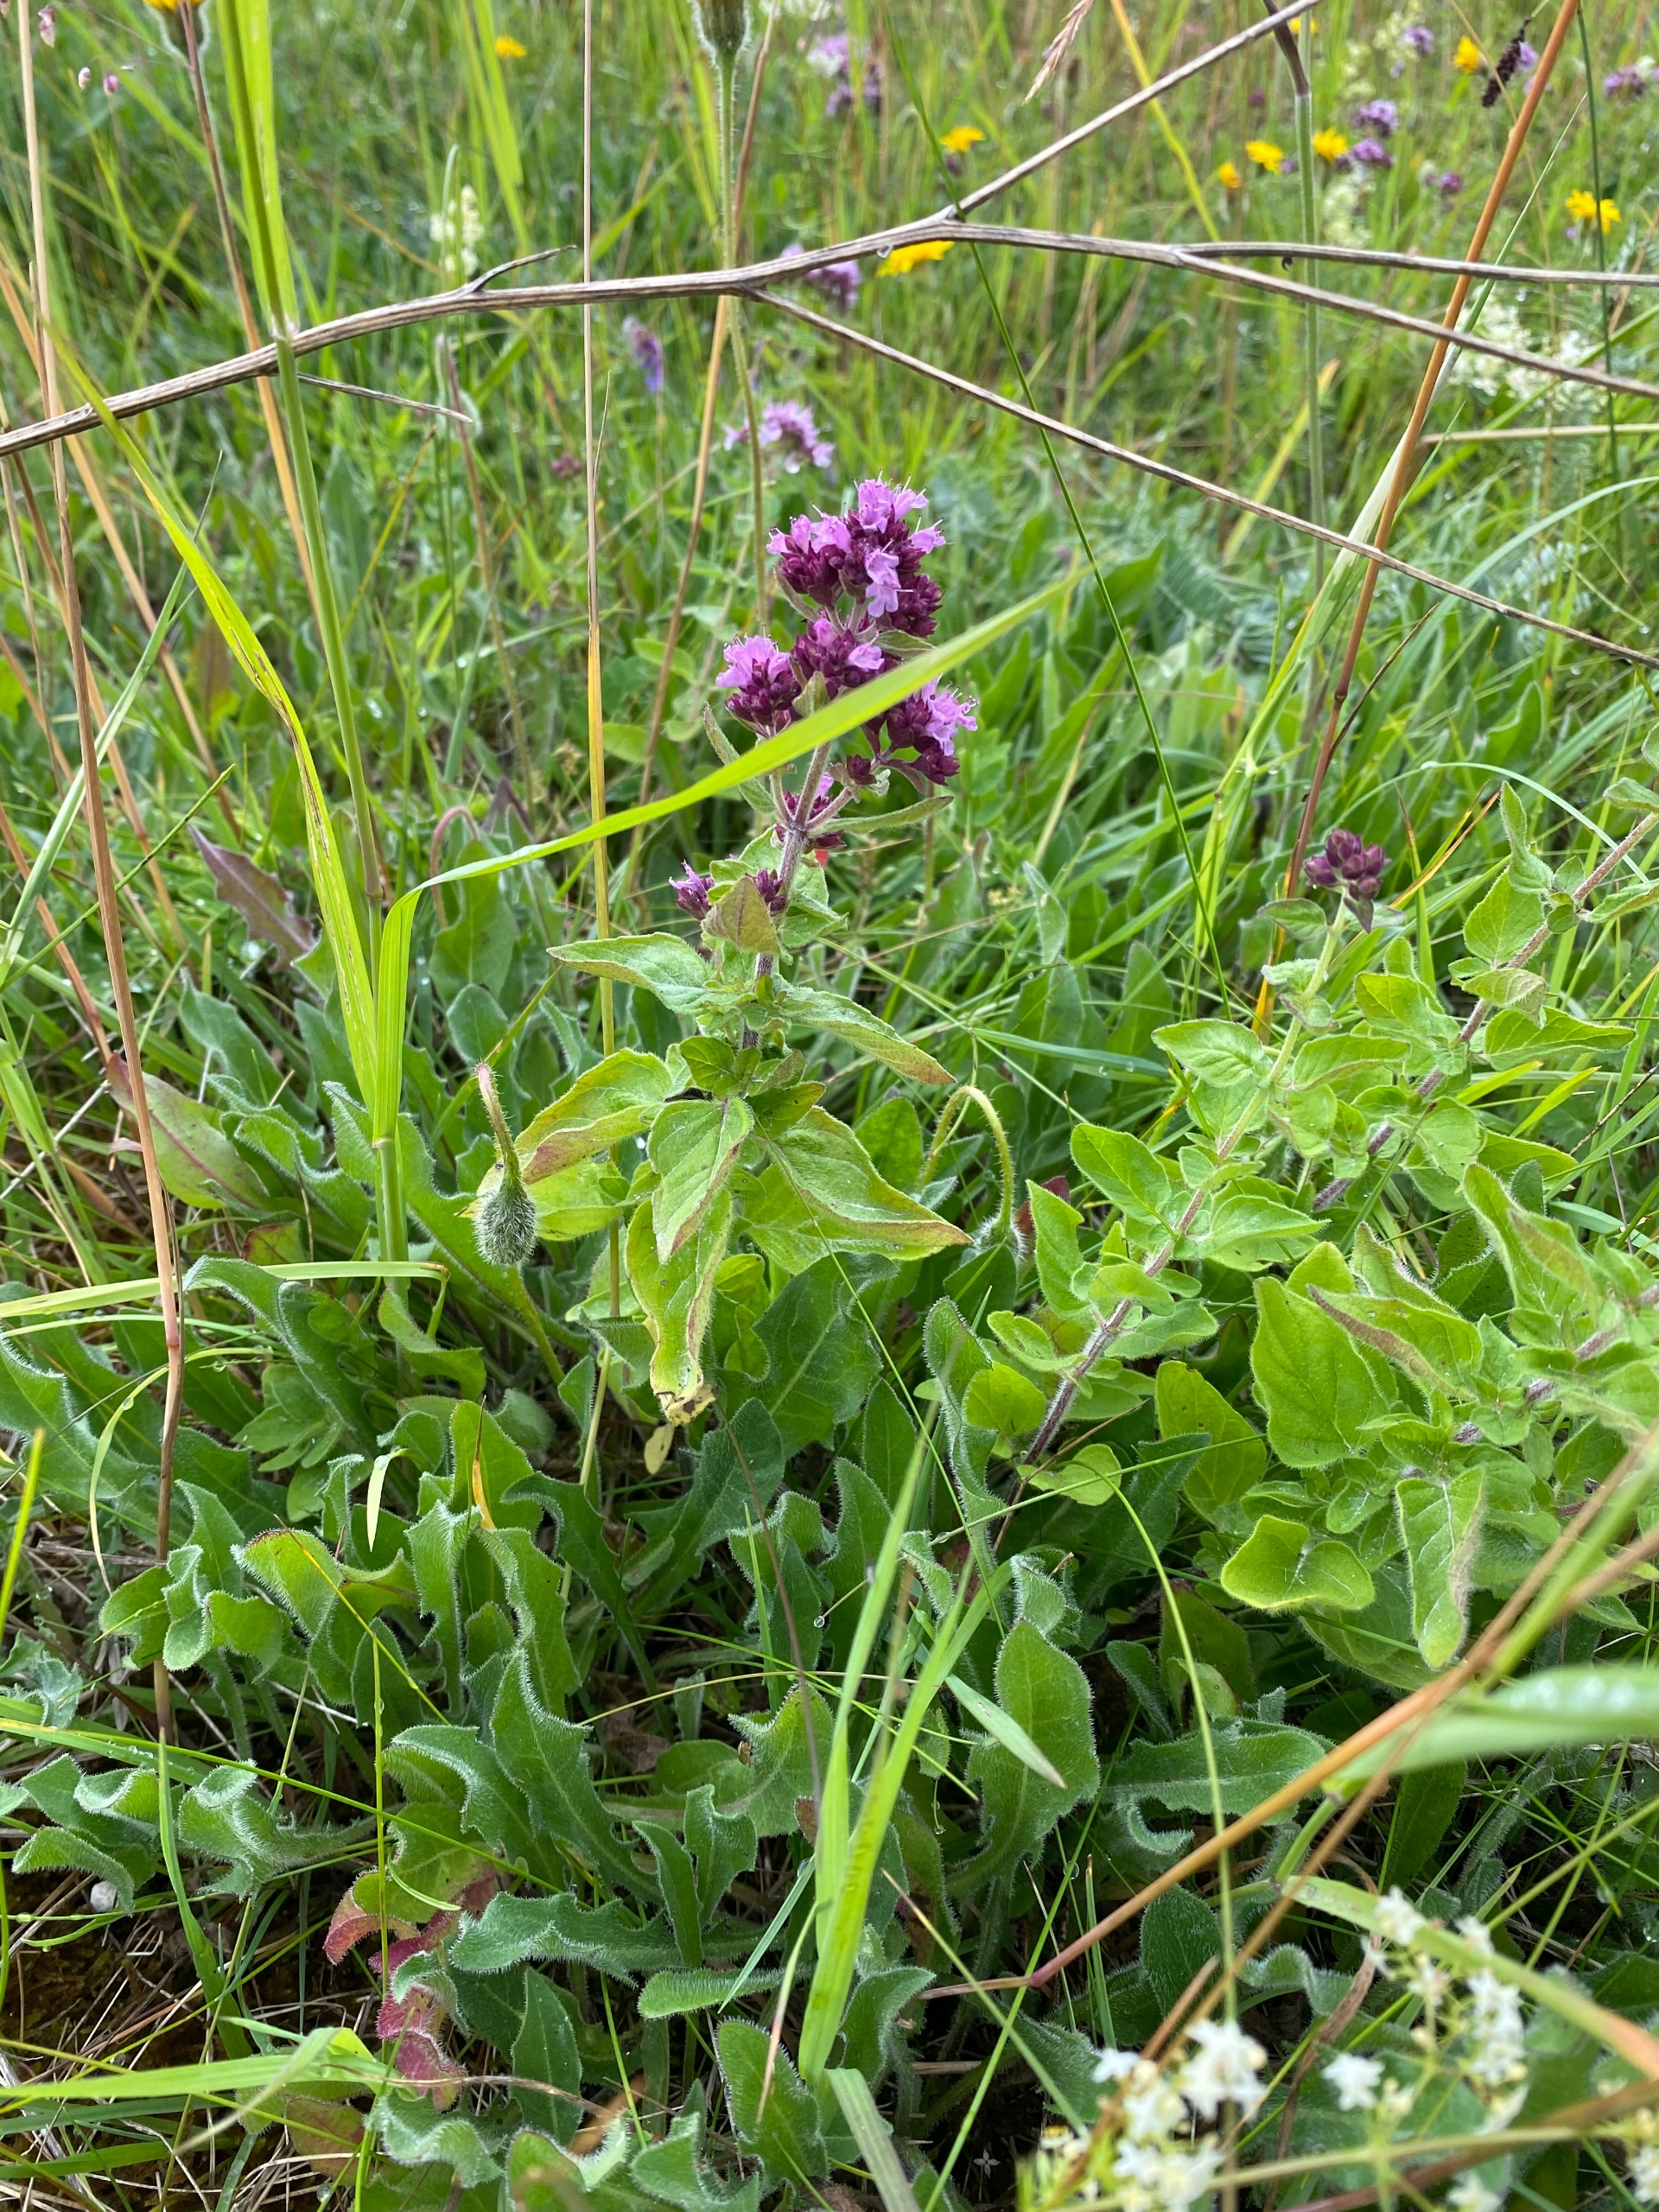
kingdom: Plantae
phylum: Tracheophyta
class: Magnoliopsida
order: Lamiales
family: Lamiaceae
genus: Origanum
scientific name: Origanum vulgare
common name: Merian
